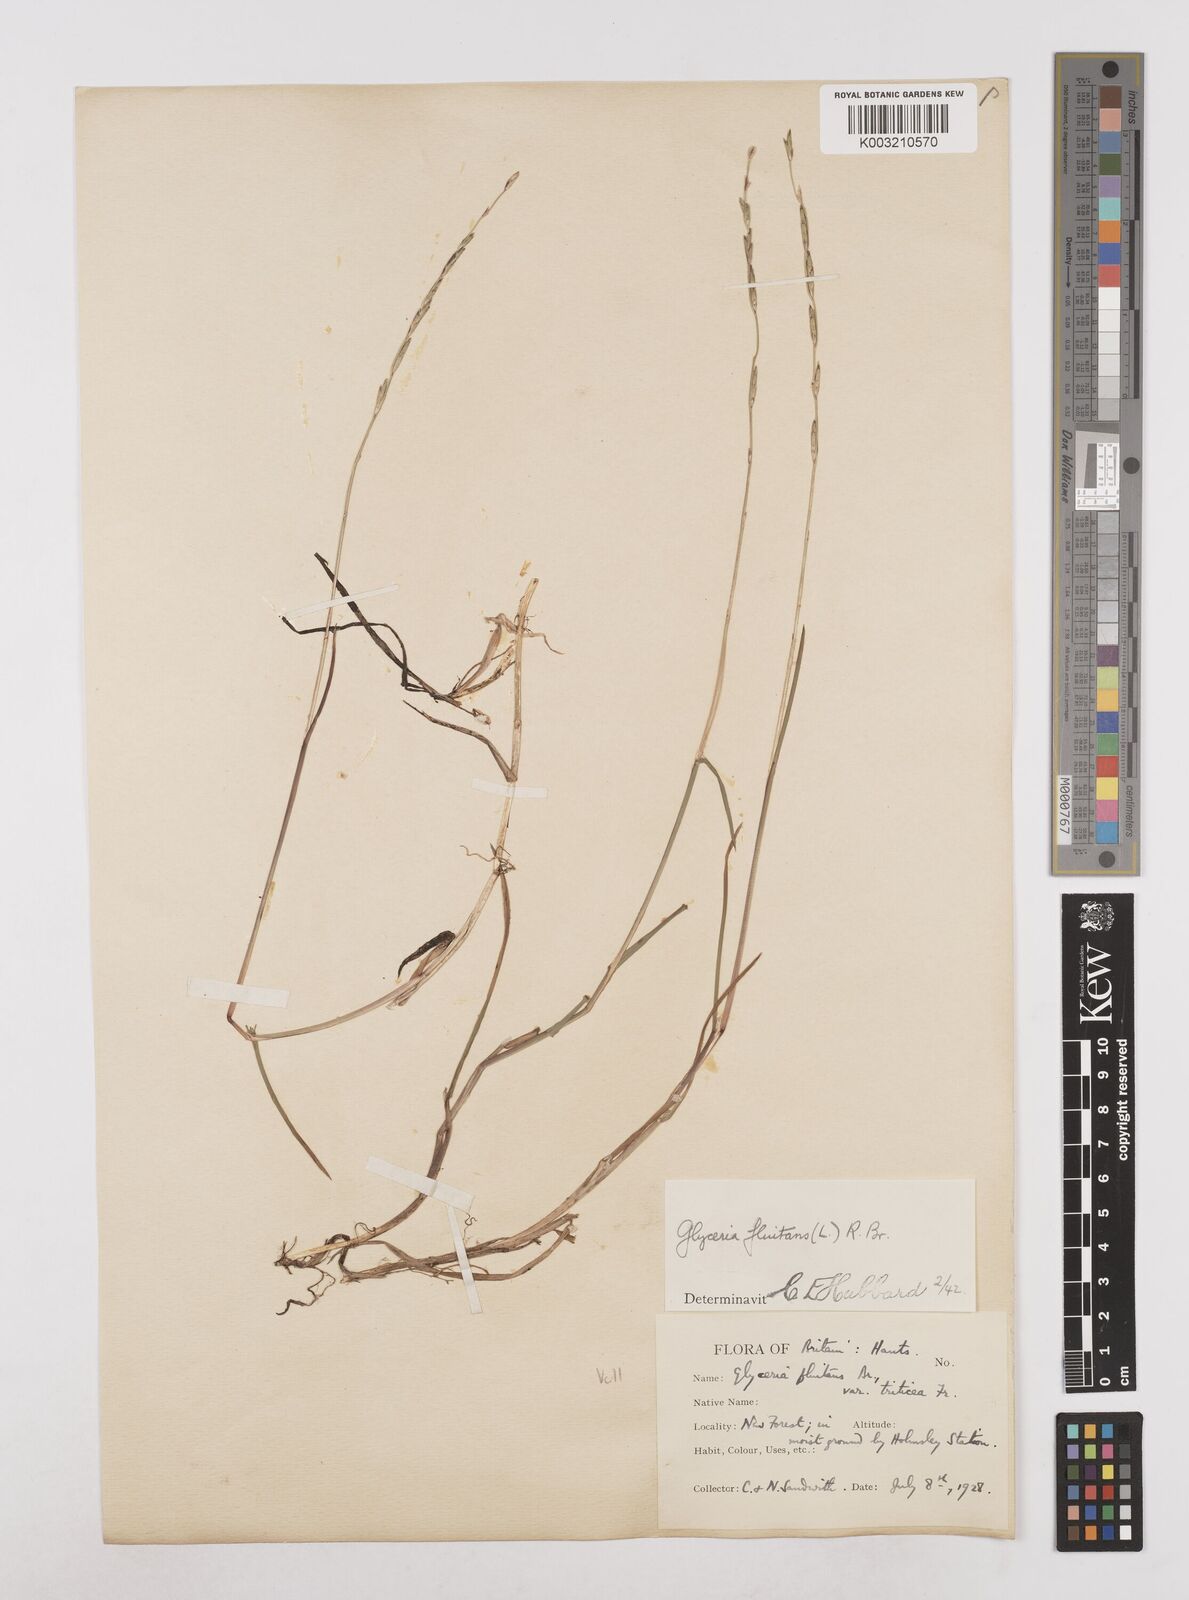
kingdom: Plantae
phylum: Tracheophyta
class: Liliopsida
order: Poales
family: Poaceae
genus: Glyceria
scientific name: Glyceria fluitans
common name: Floating sweet-grass
